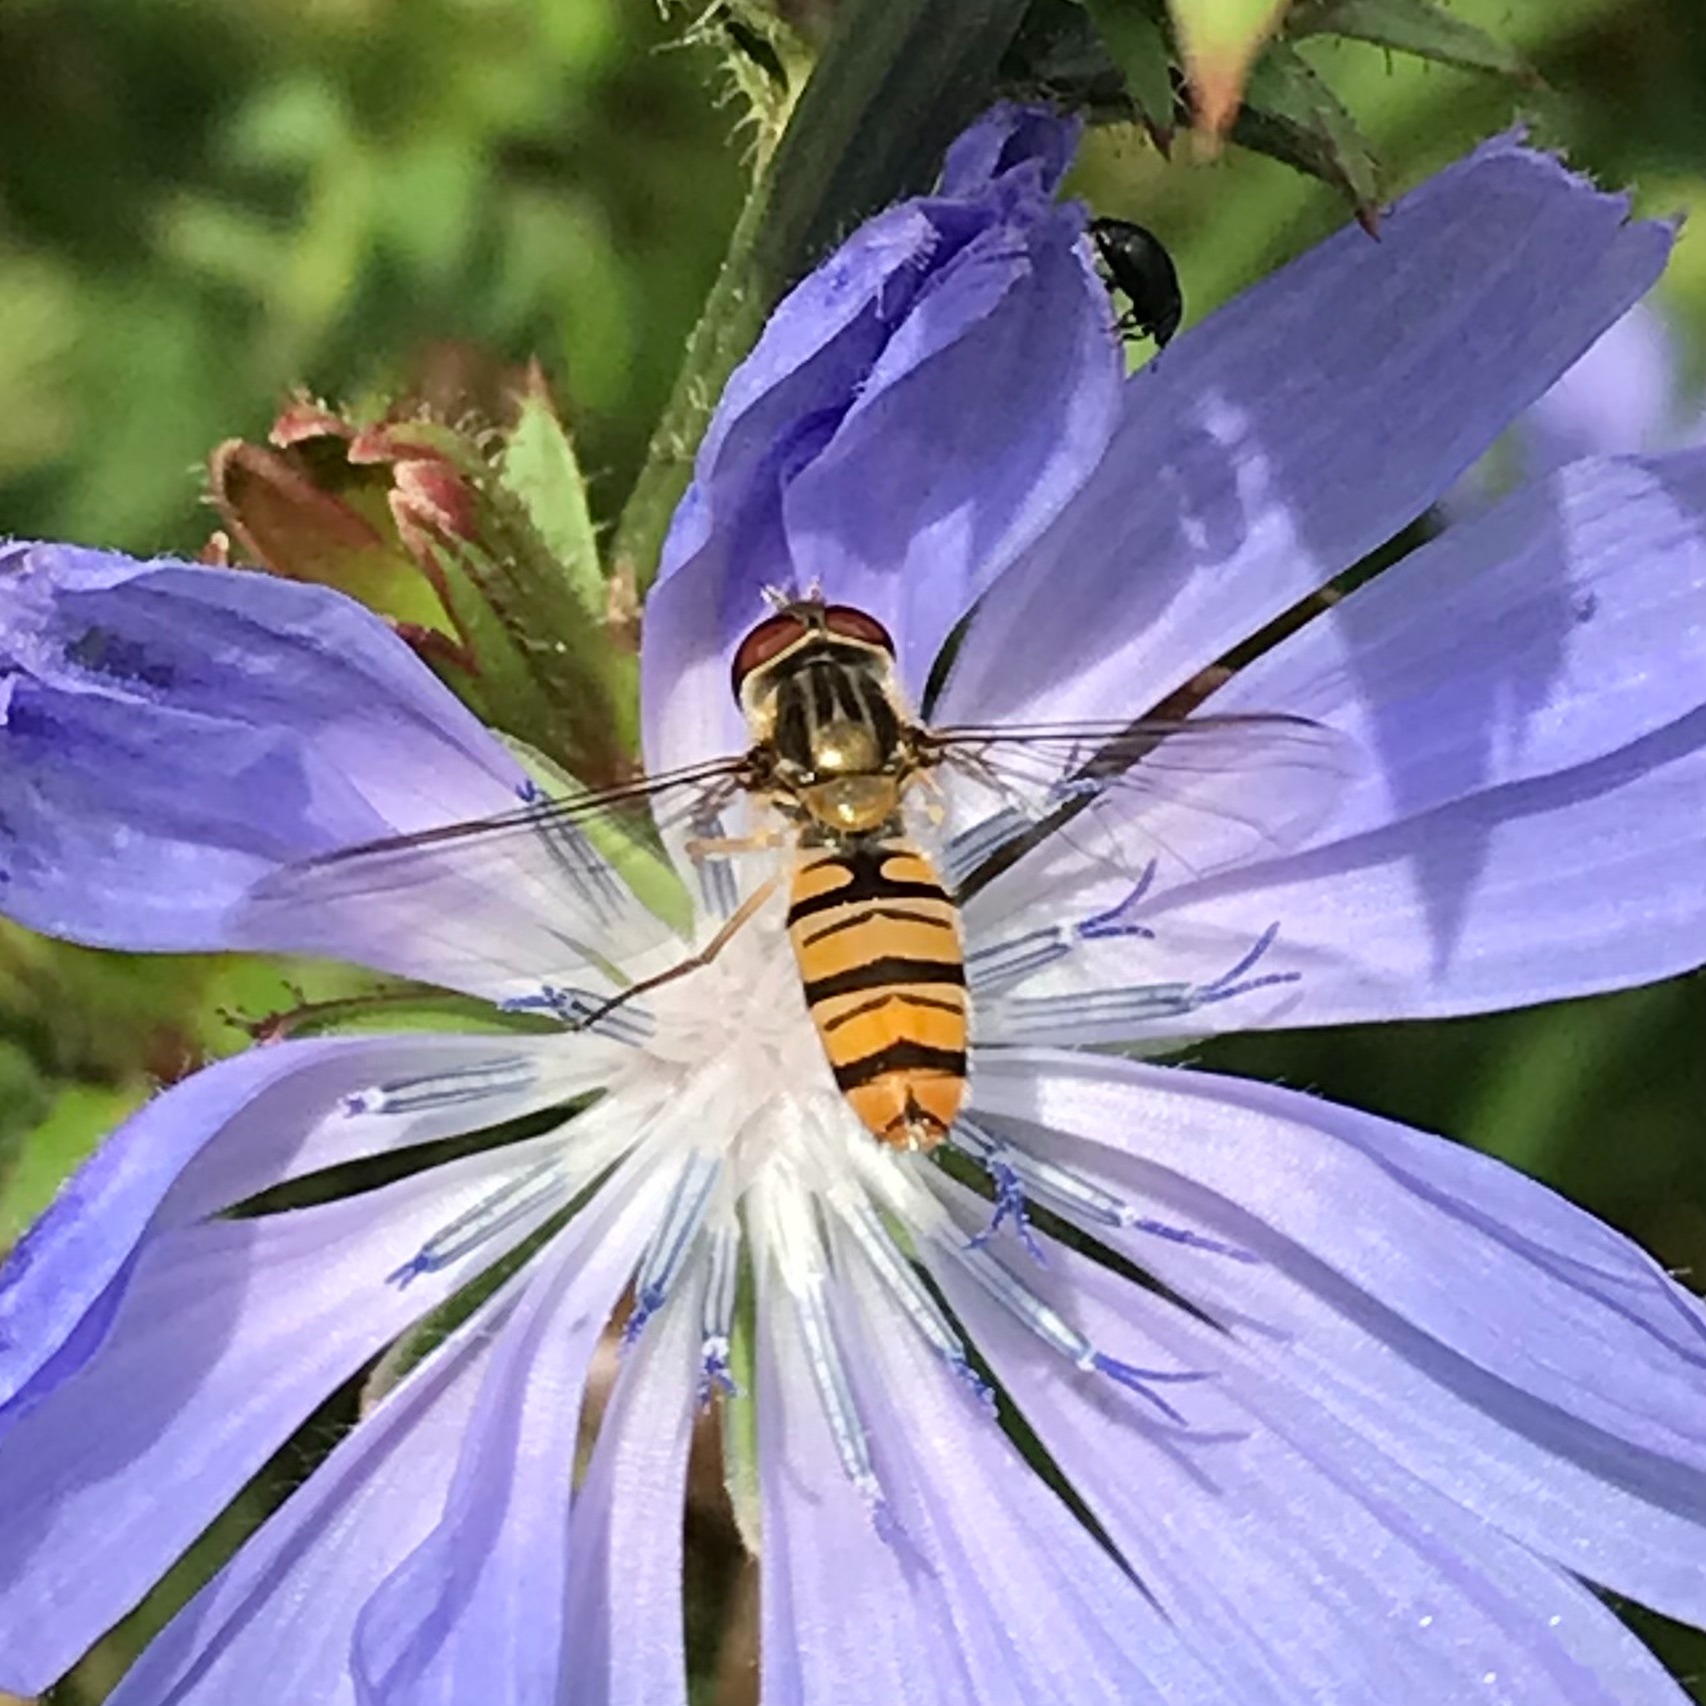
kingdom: Animalia
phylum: Arthropoda
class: Insecta
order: Diptera
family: Syrphidae
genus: Episyrphus
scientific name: Episyrphus balteatus
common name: Dobbeltbåndet svirreflue
